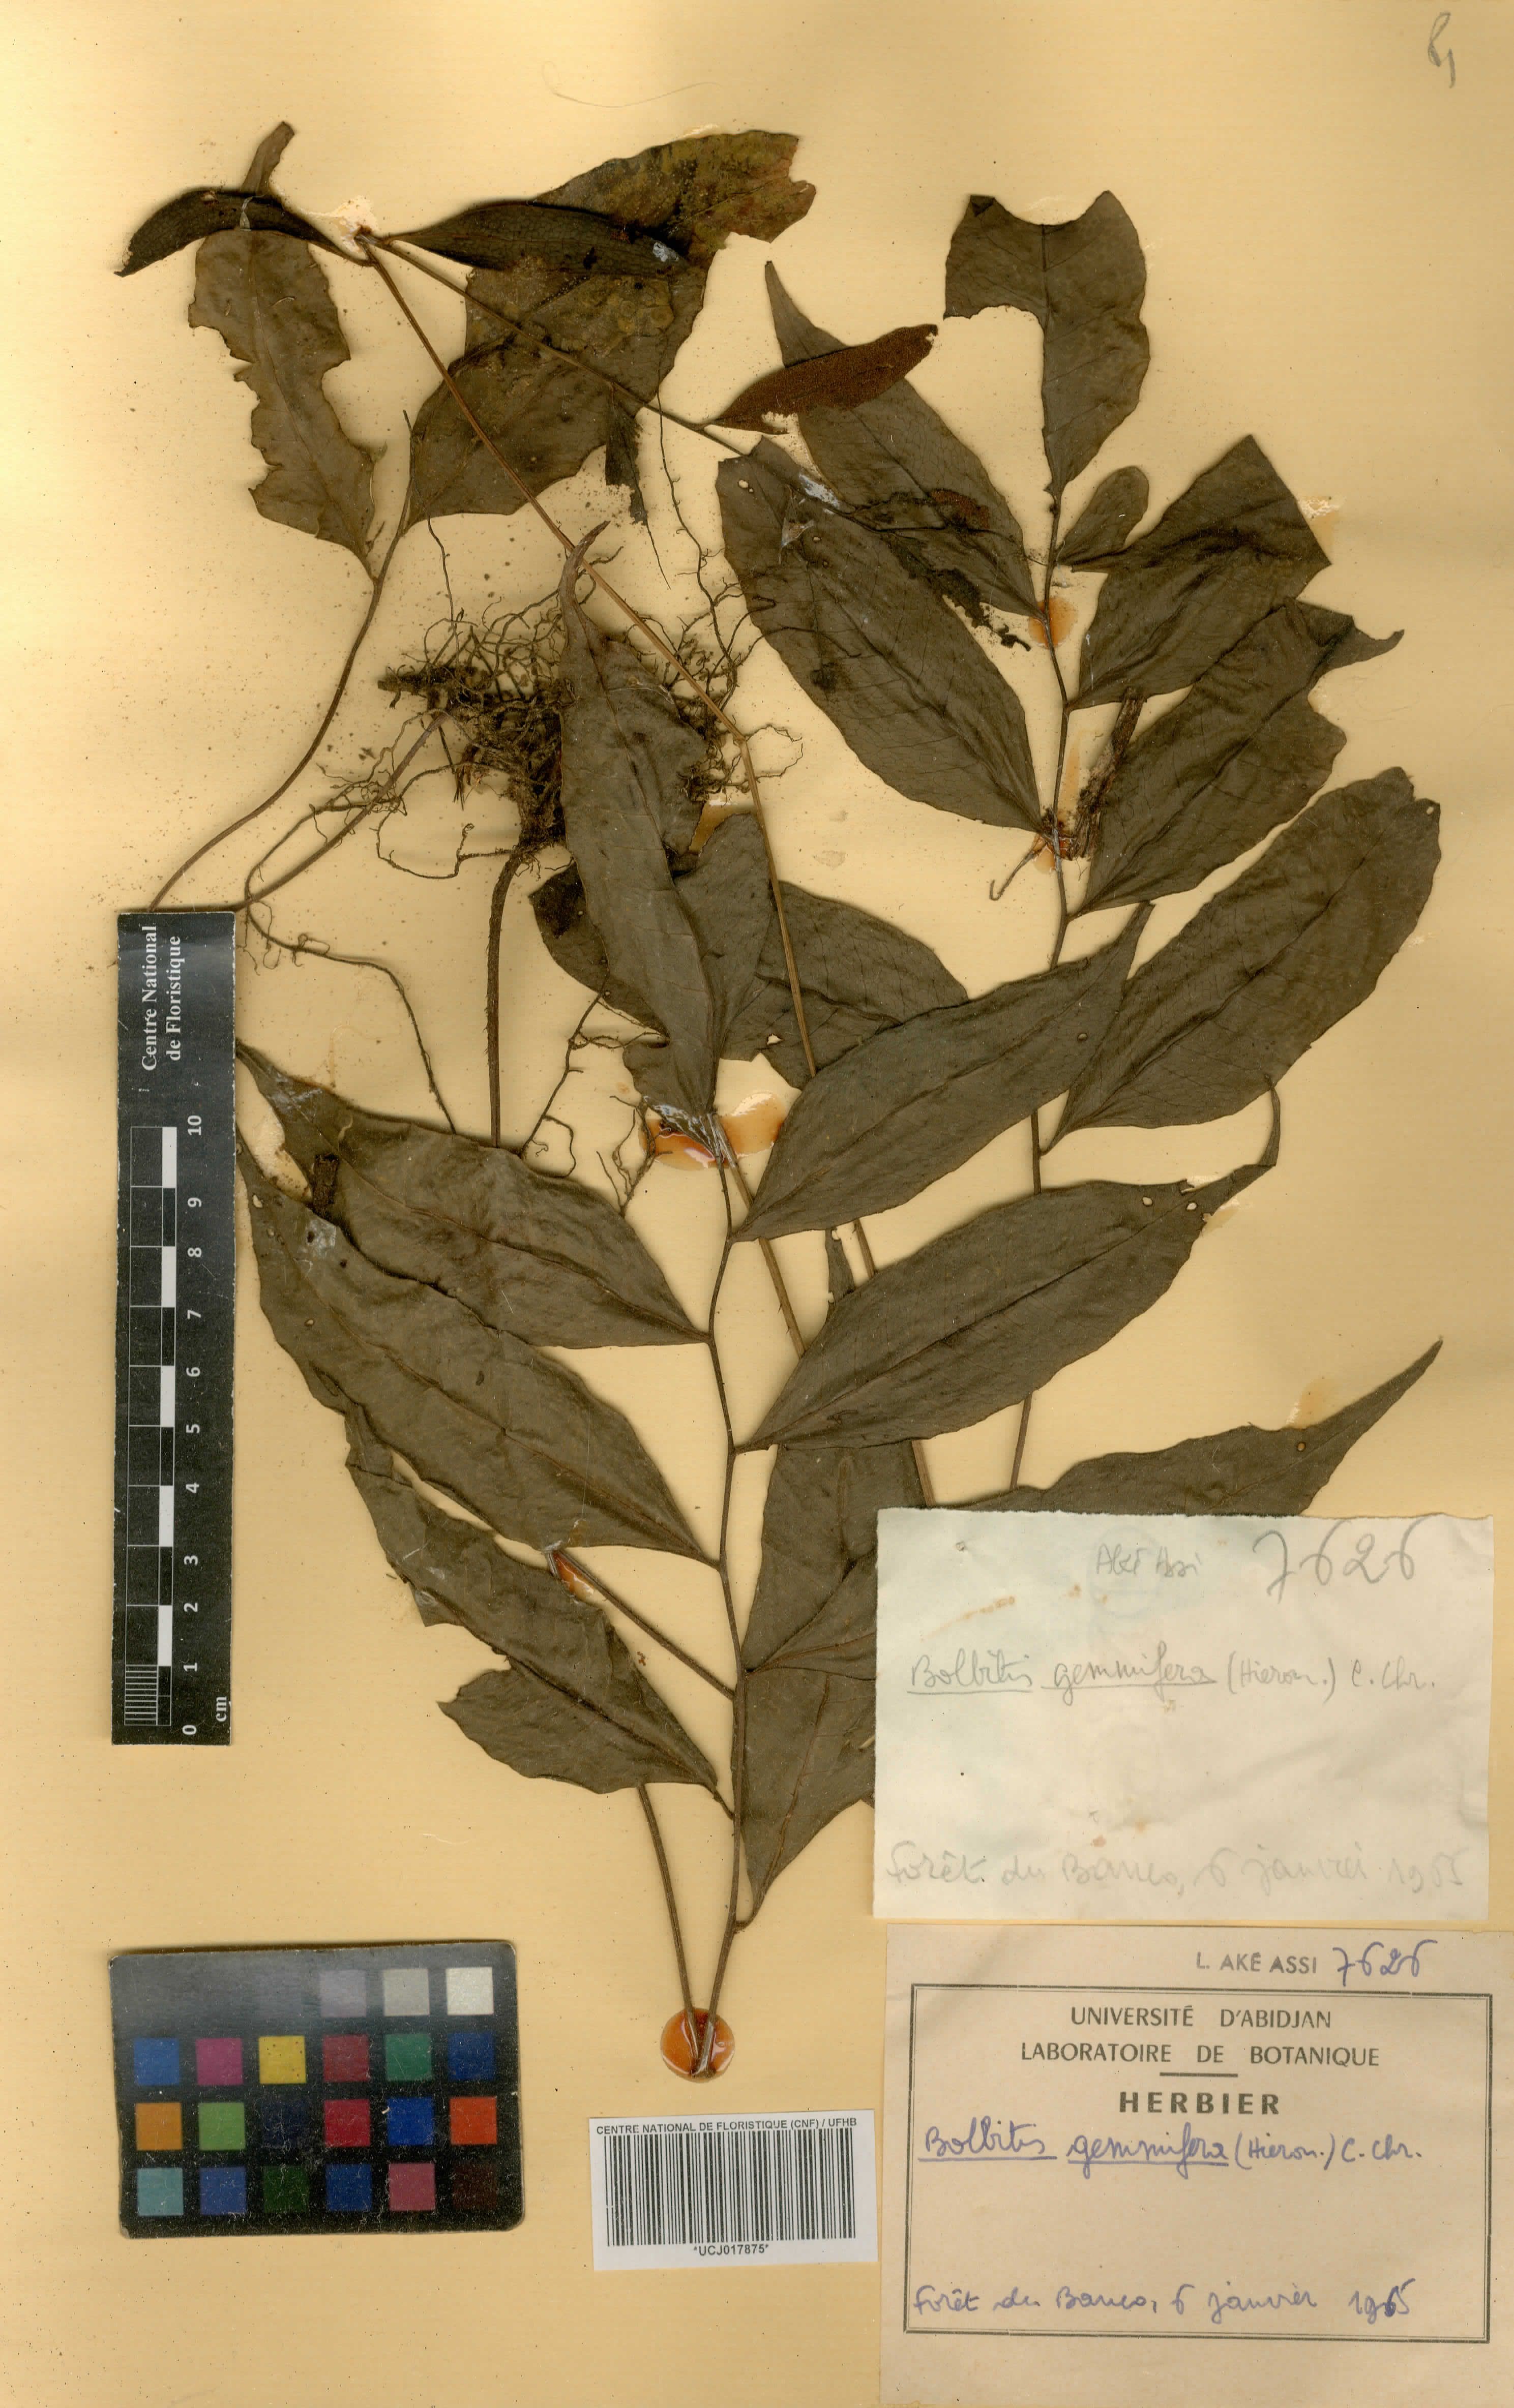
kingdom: Plantae
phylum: Tracheophyta
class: Polypodiopsida
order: Polypodiales
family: Dryopteridaceae
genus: Bolbitis
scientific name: Bolbitis gemmifer
